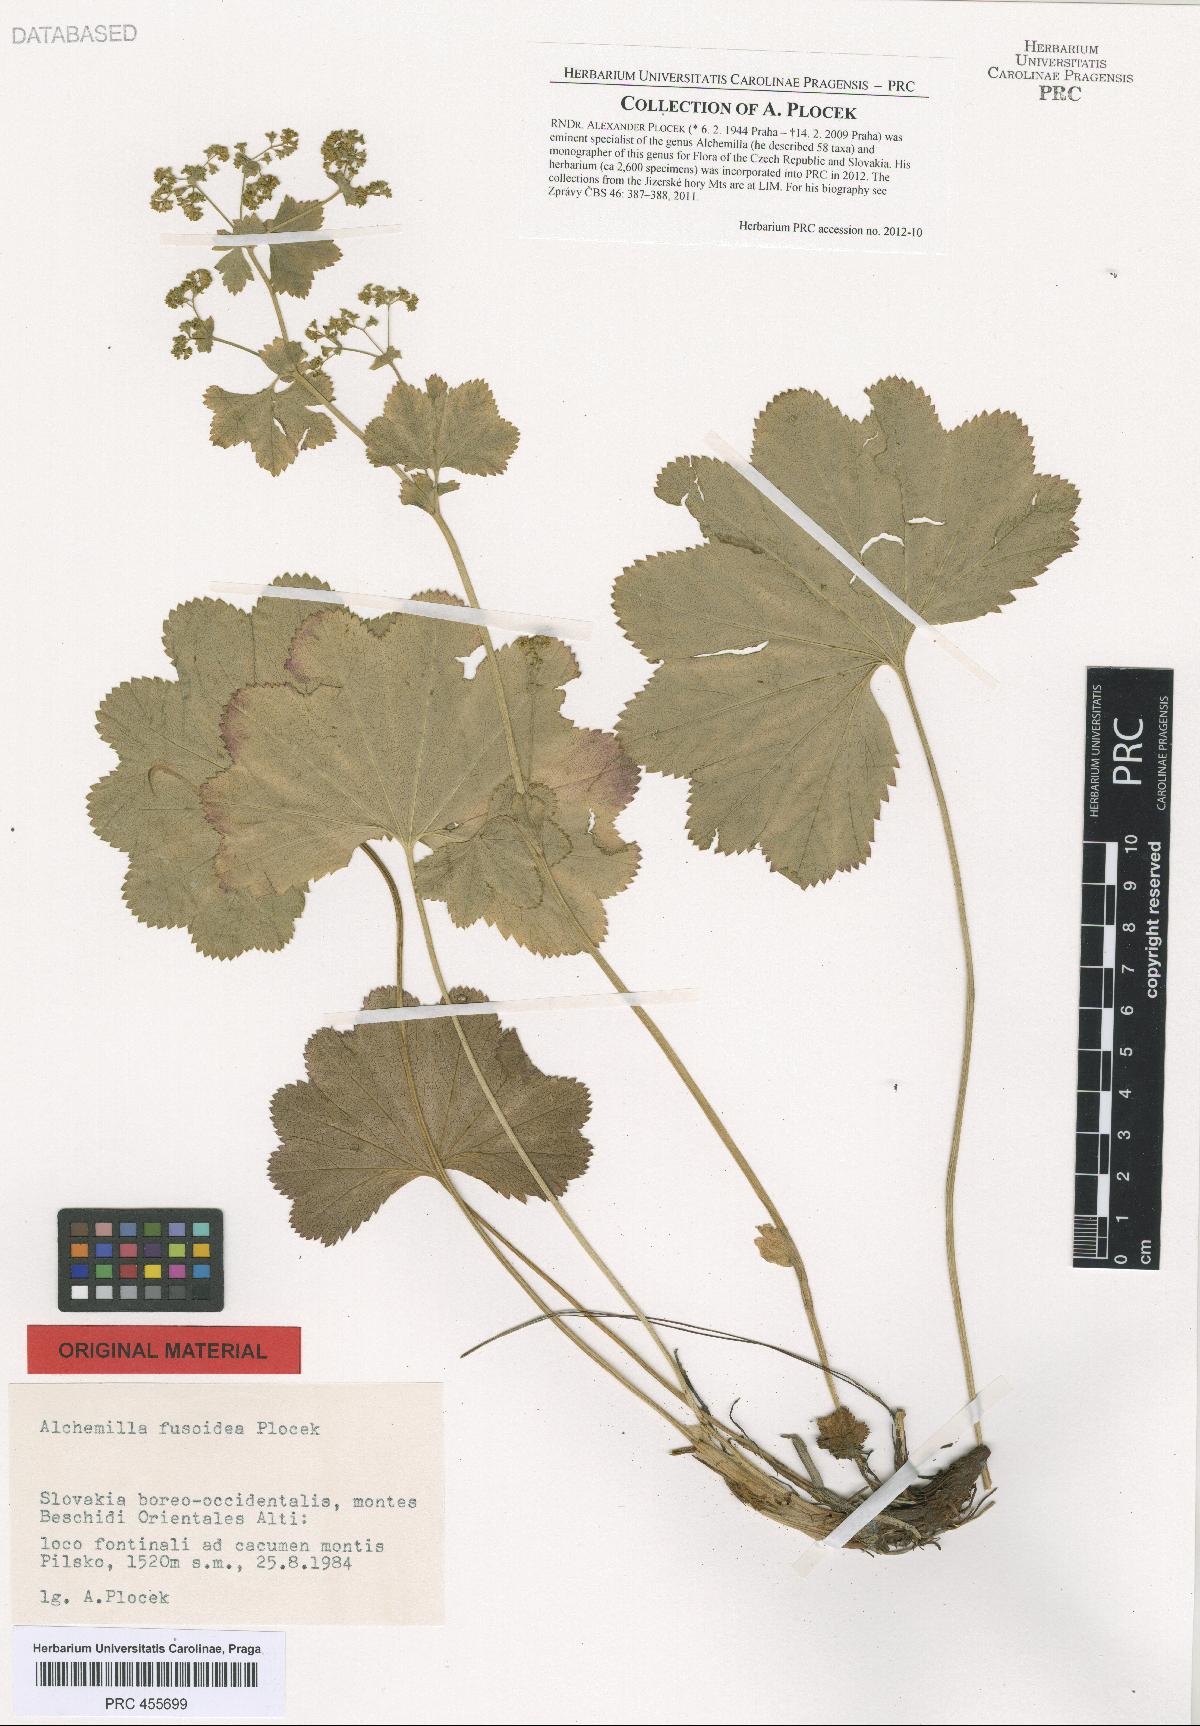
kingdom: Plantae
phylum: Tracheophyta
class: Magnoliopsida
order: Rosales
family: Rosaceae
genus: Alchemilla
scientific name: Alchemilla fusoidea
